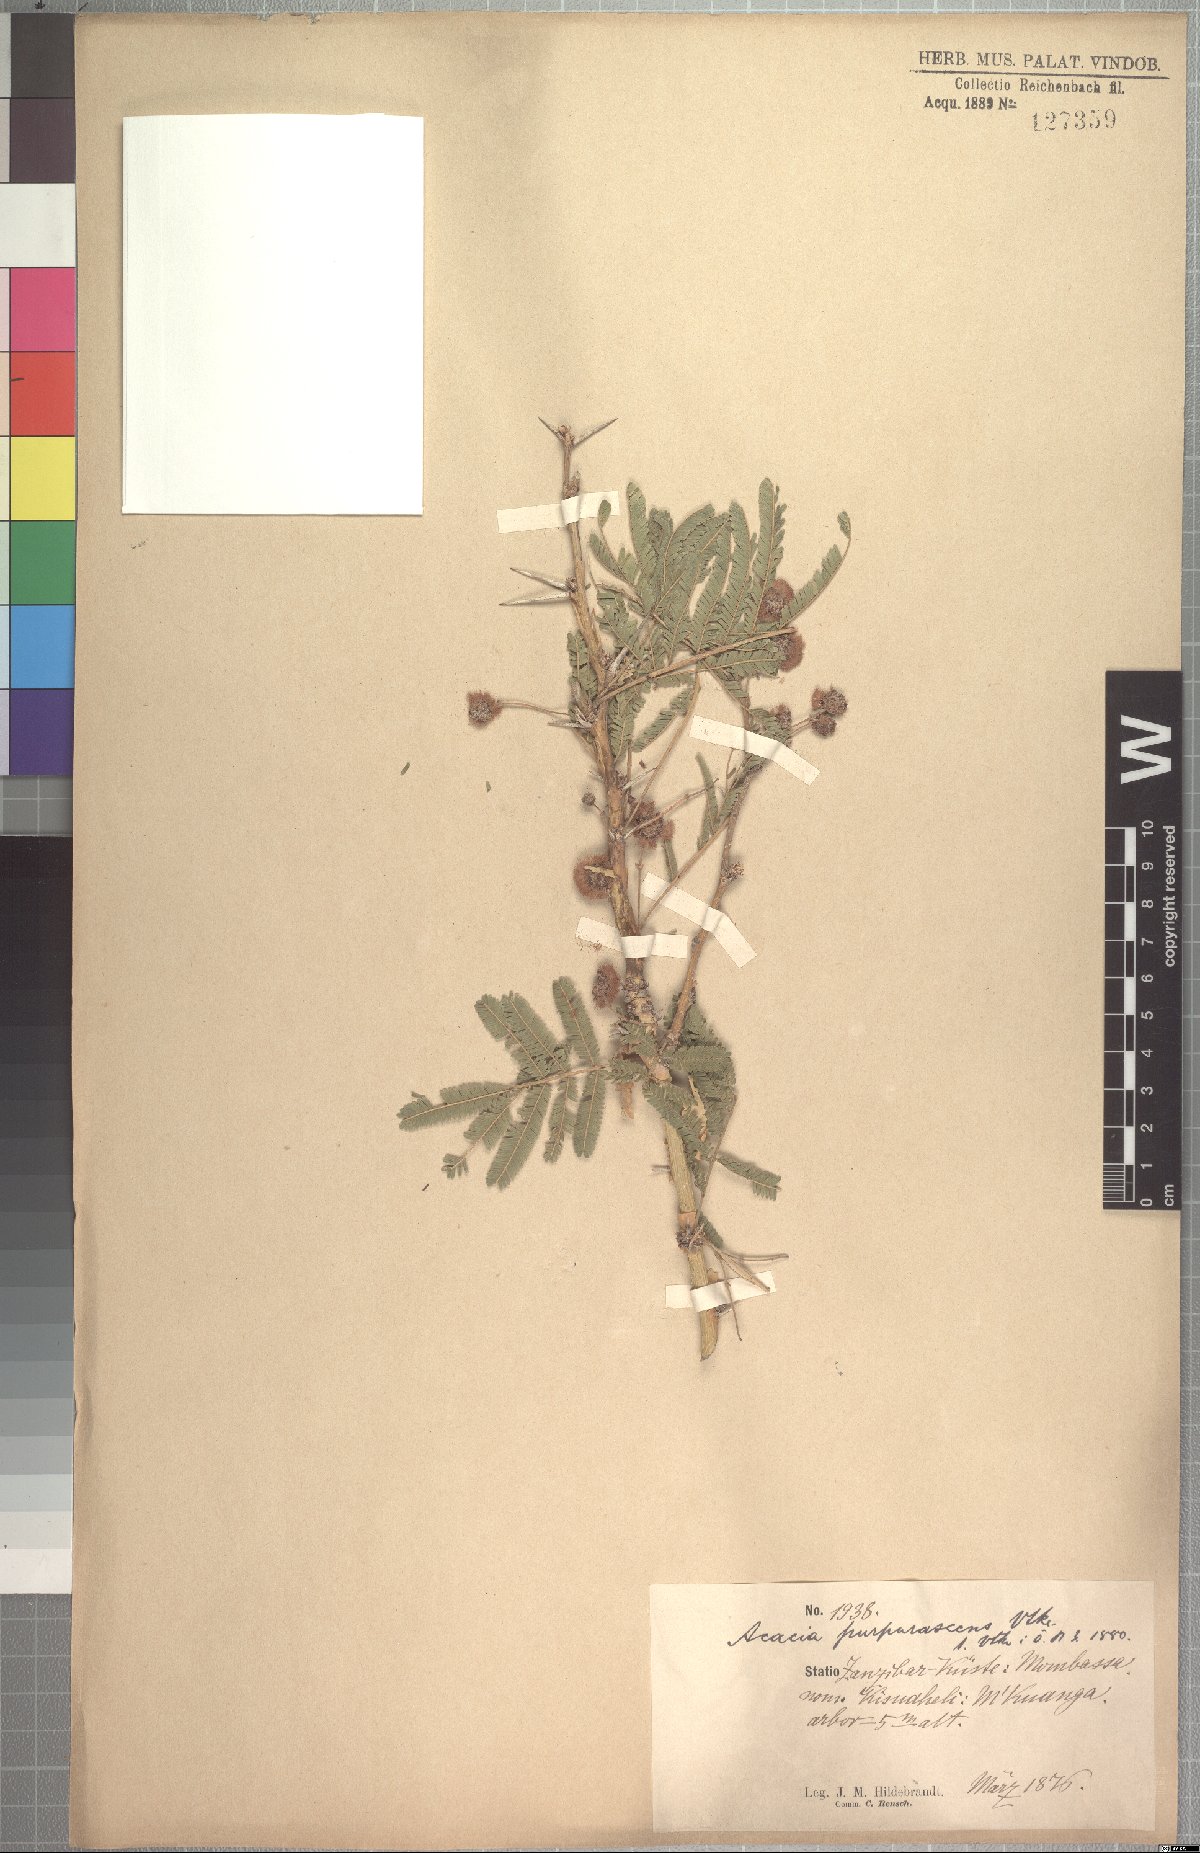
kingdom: Plantae
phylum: Tracheophyta
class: Magnoliopsida
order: Fabales
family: Fabaceae
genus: Vachellia
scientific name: Vachellia sieberiana
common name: Flat-topped thorn
